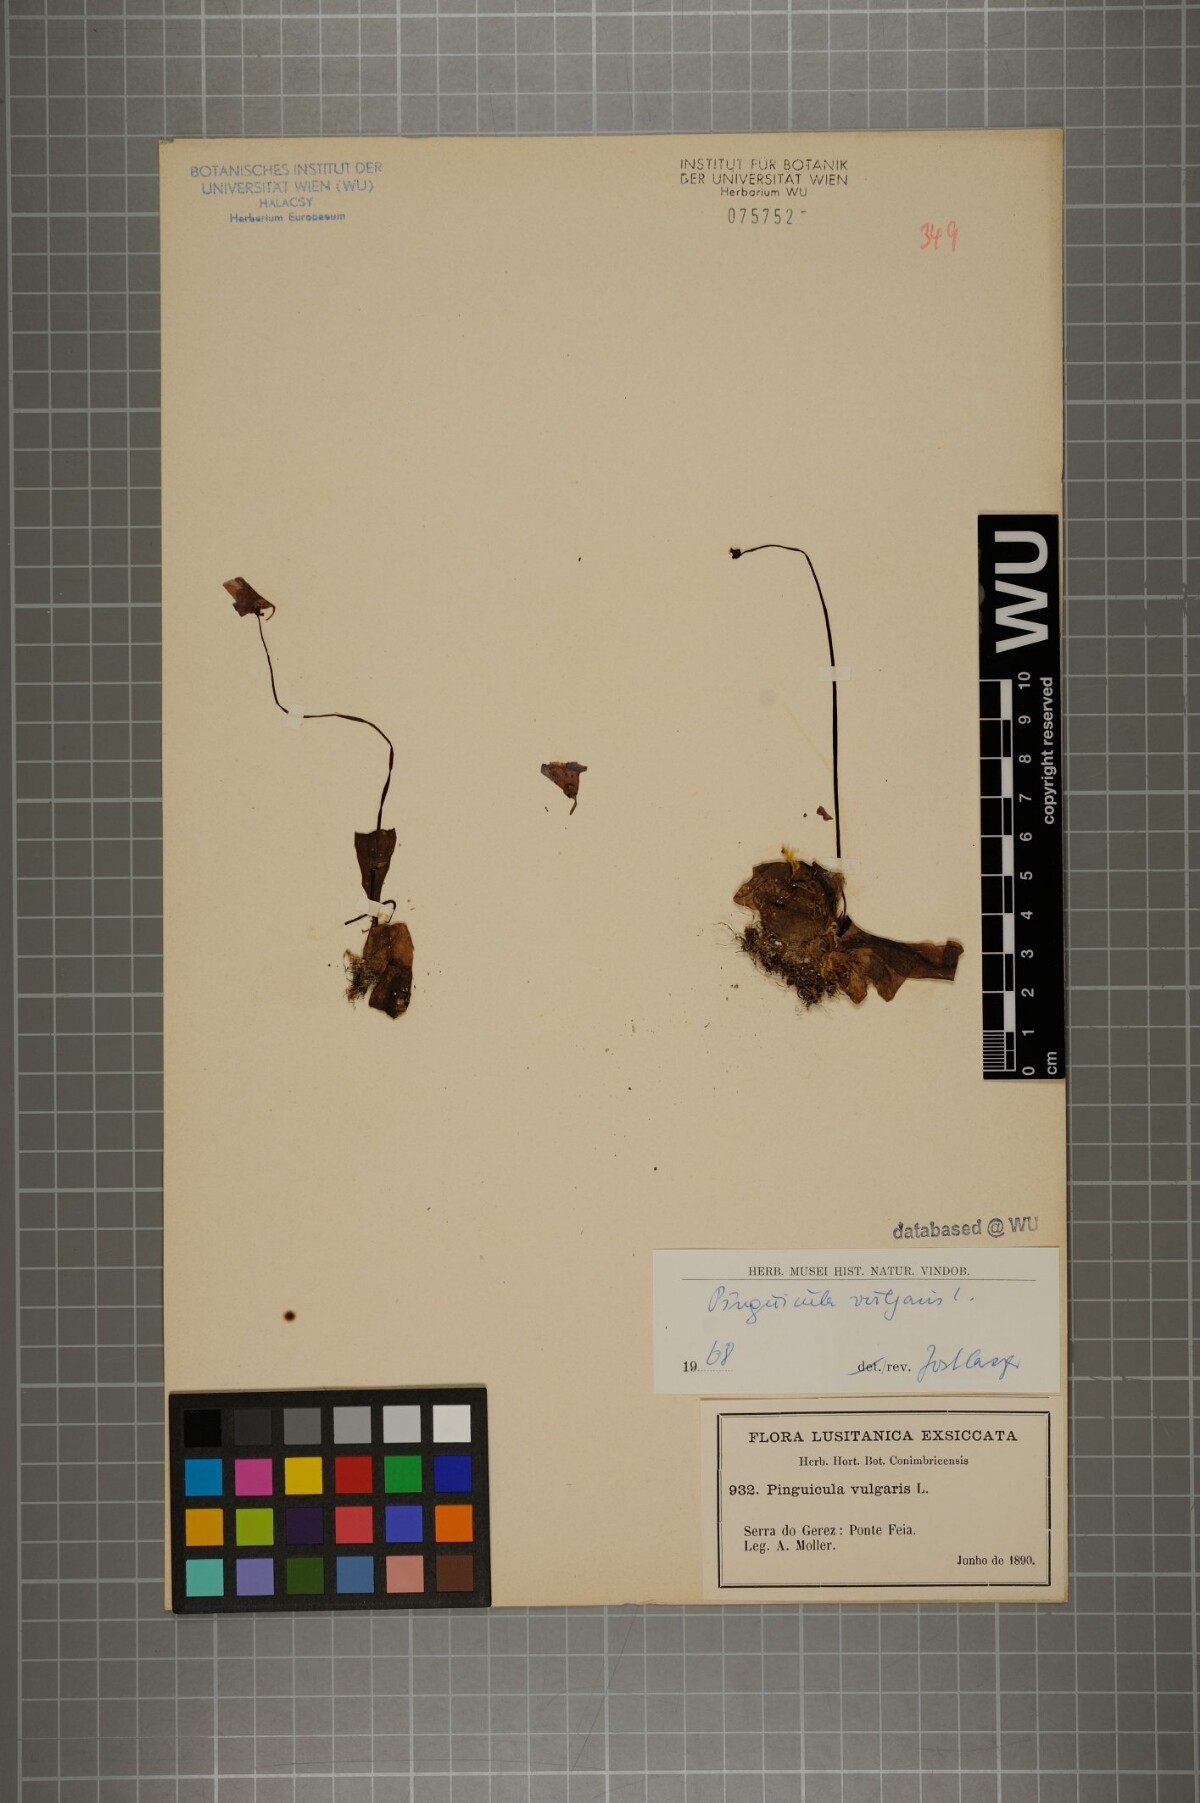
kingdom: Plantae
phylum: Tracheophyta
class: Magnoliopsida
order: Lamiales
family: Lentibulariaceae
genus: Pinguicula
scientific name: Pinguicula vulgaris
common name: Common butterwort
